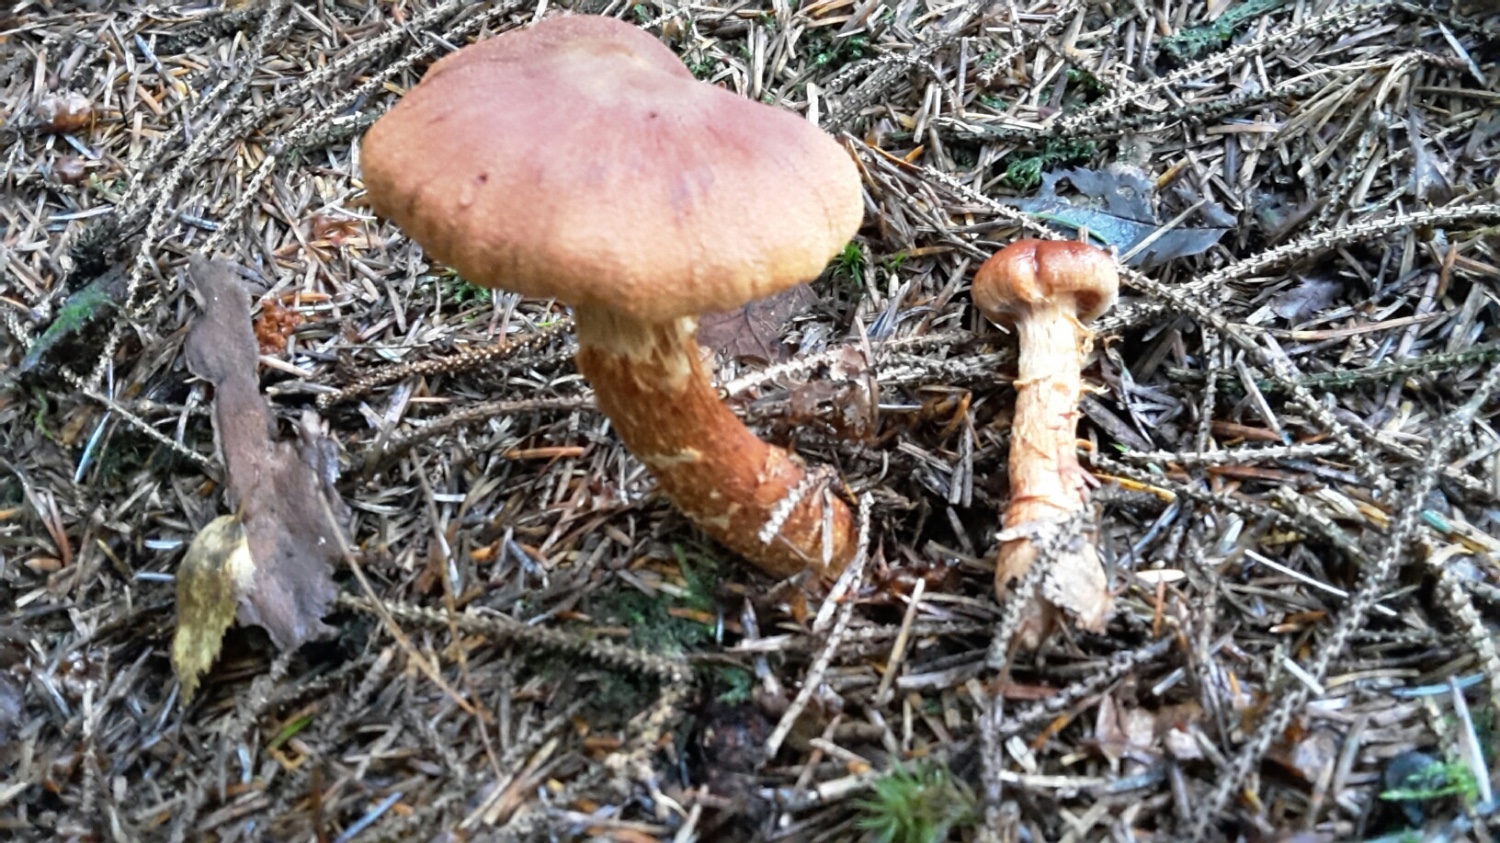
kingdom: Fungi
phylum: Basidiomycota
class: Agaricomycetes
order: Agaricales
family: Cortinariaceae
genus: Cortinarius
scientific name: Cortinarius rubellus
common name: puklet gift-slørhat
